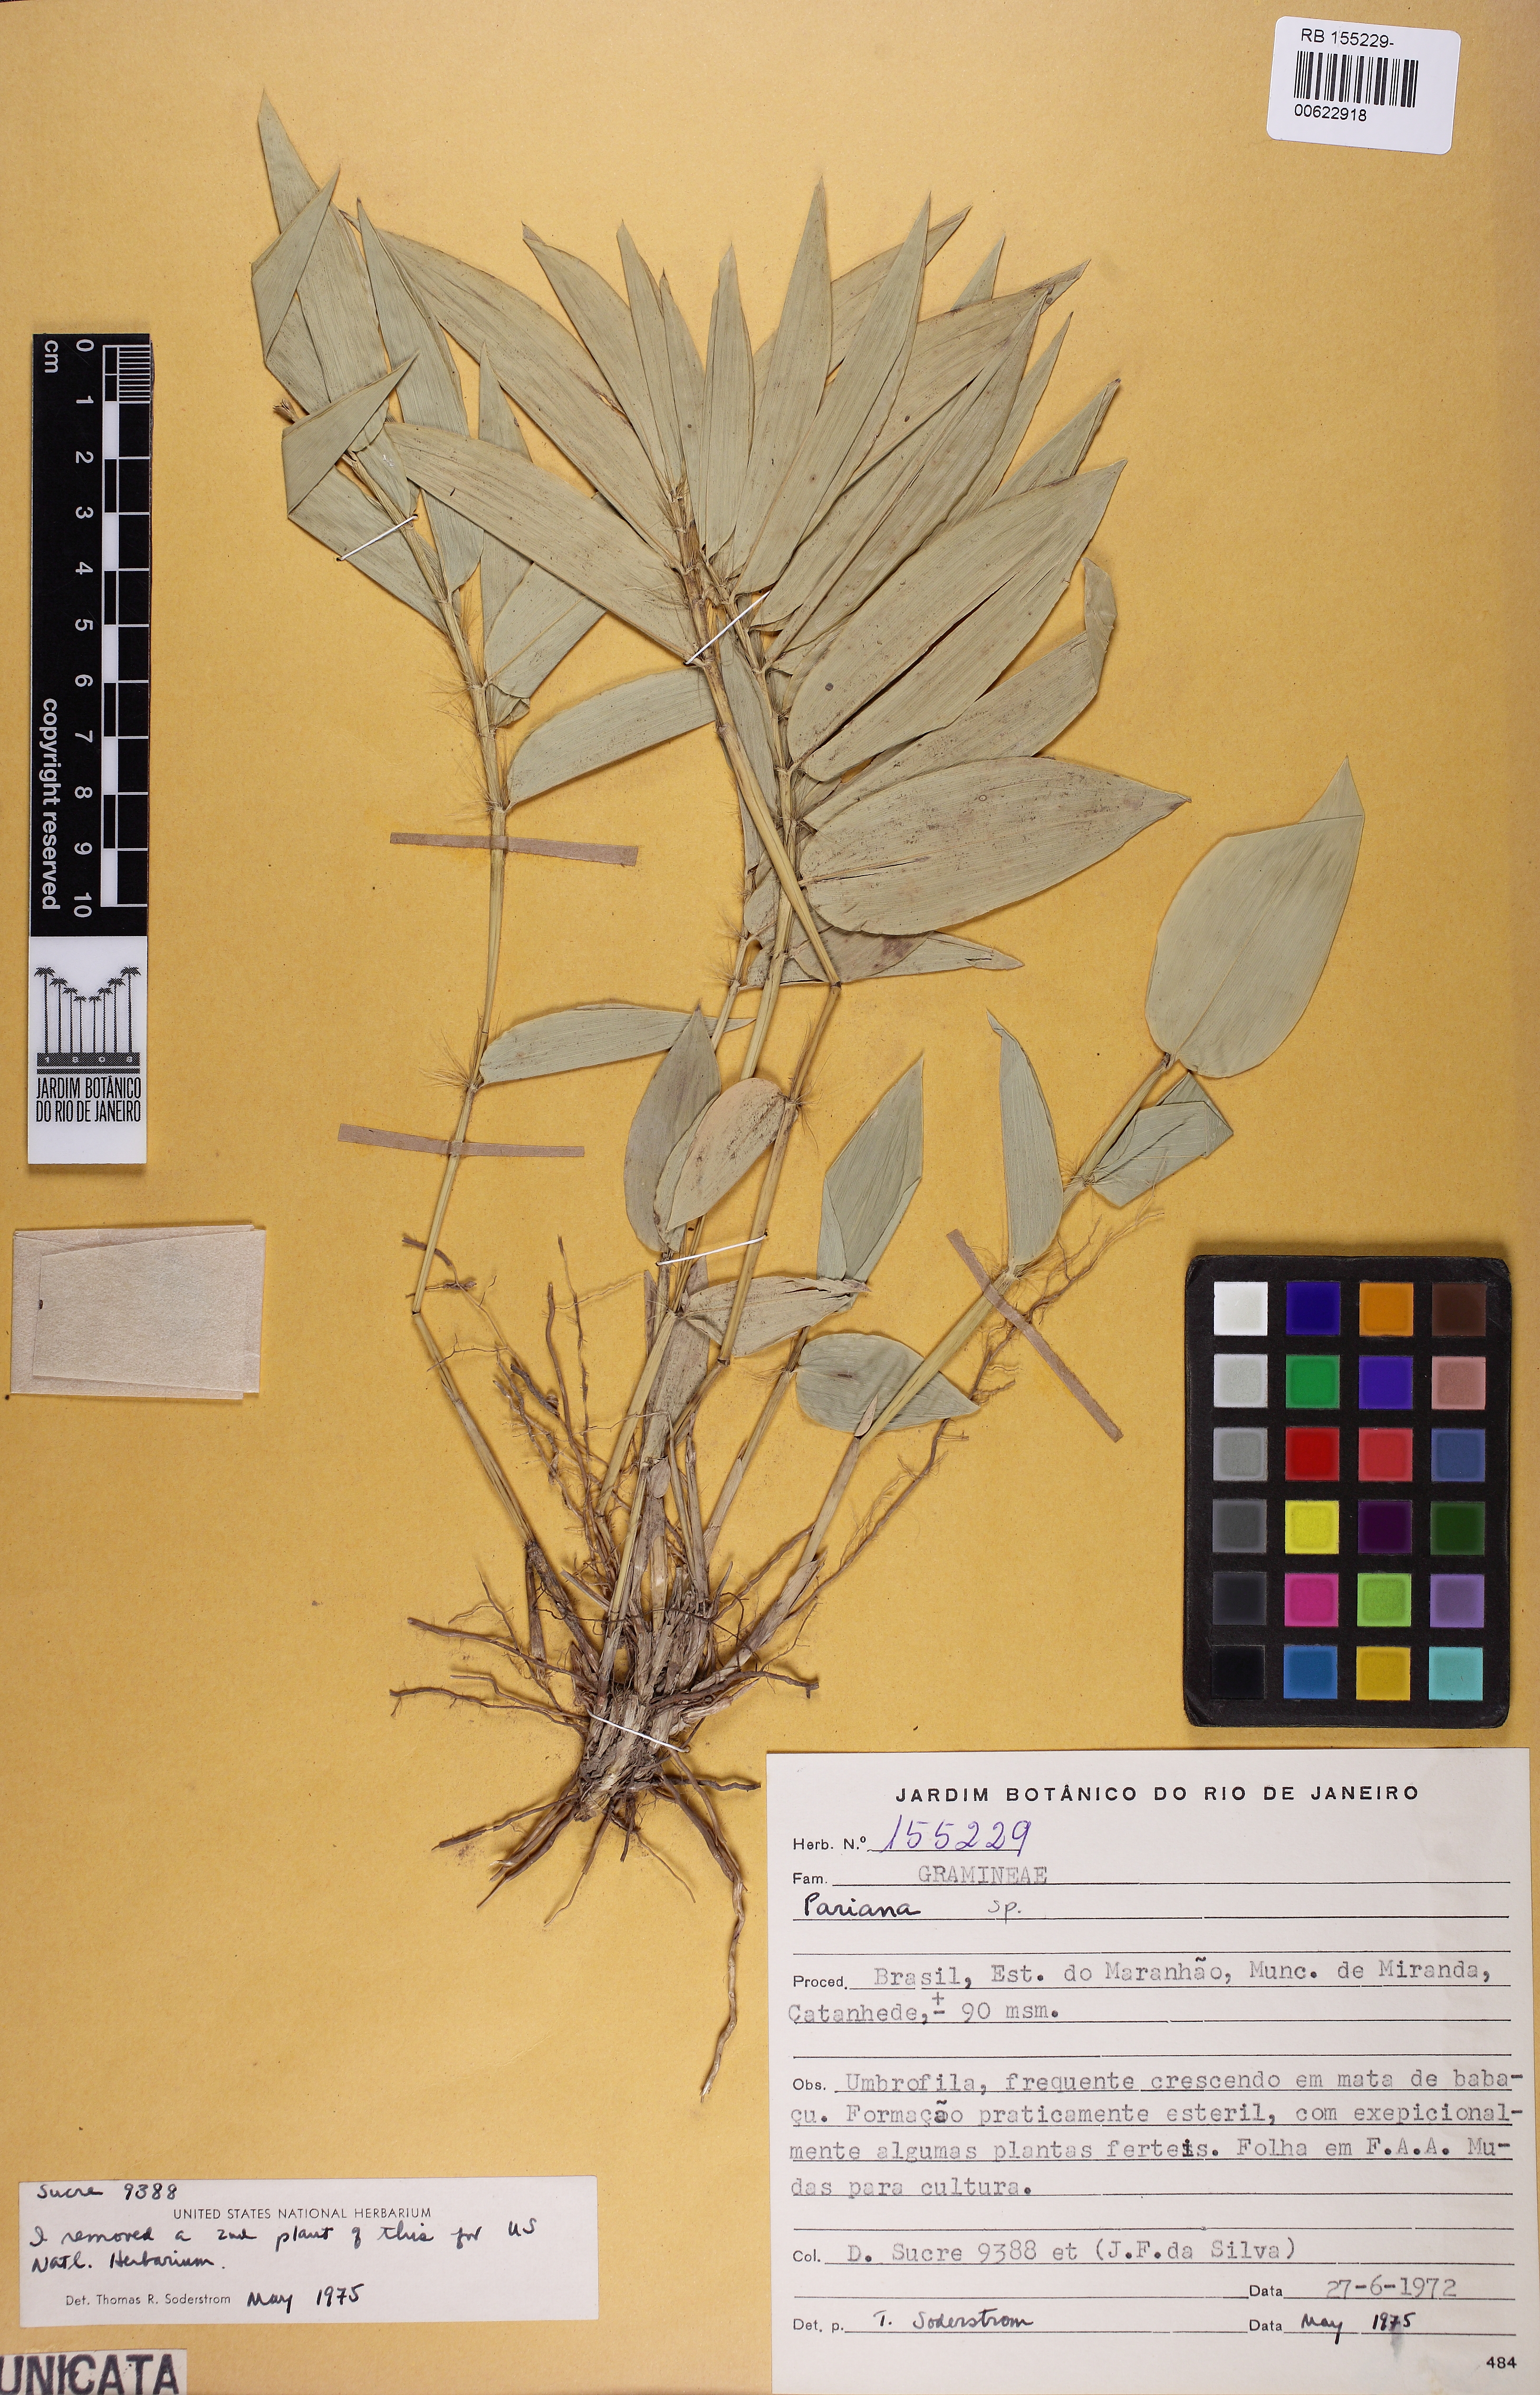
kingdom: Plantae
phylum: Tracheophyta
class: Liliopsida
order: Poales
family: Poaceae
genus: Pariana
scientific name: Pariana sociata
